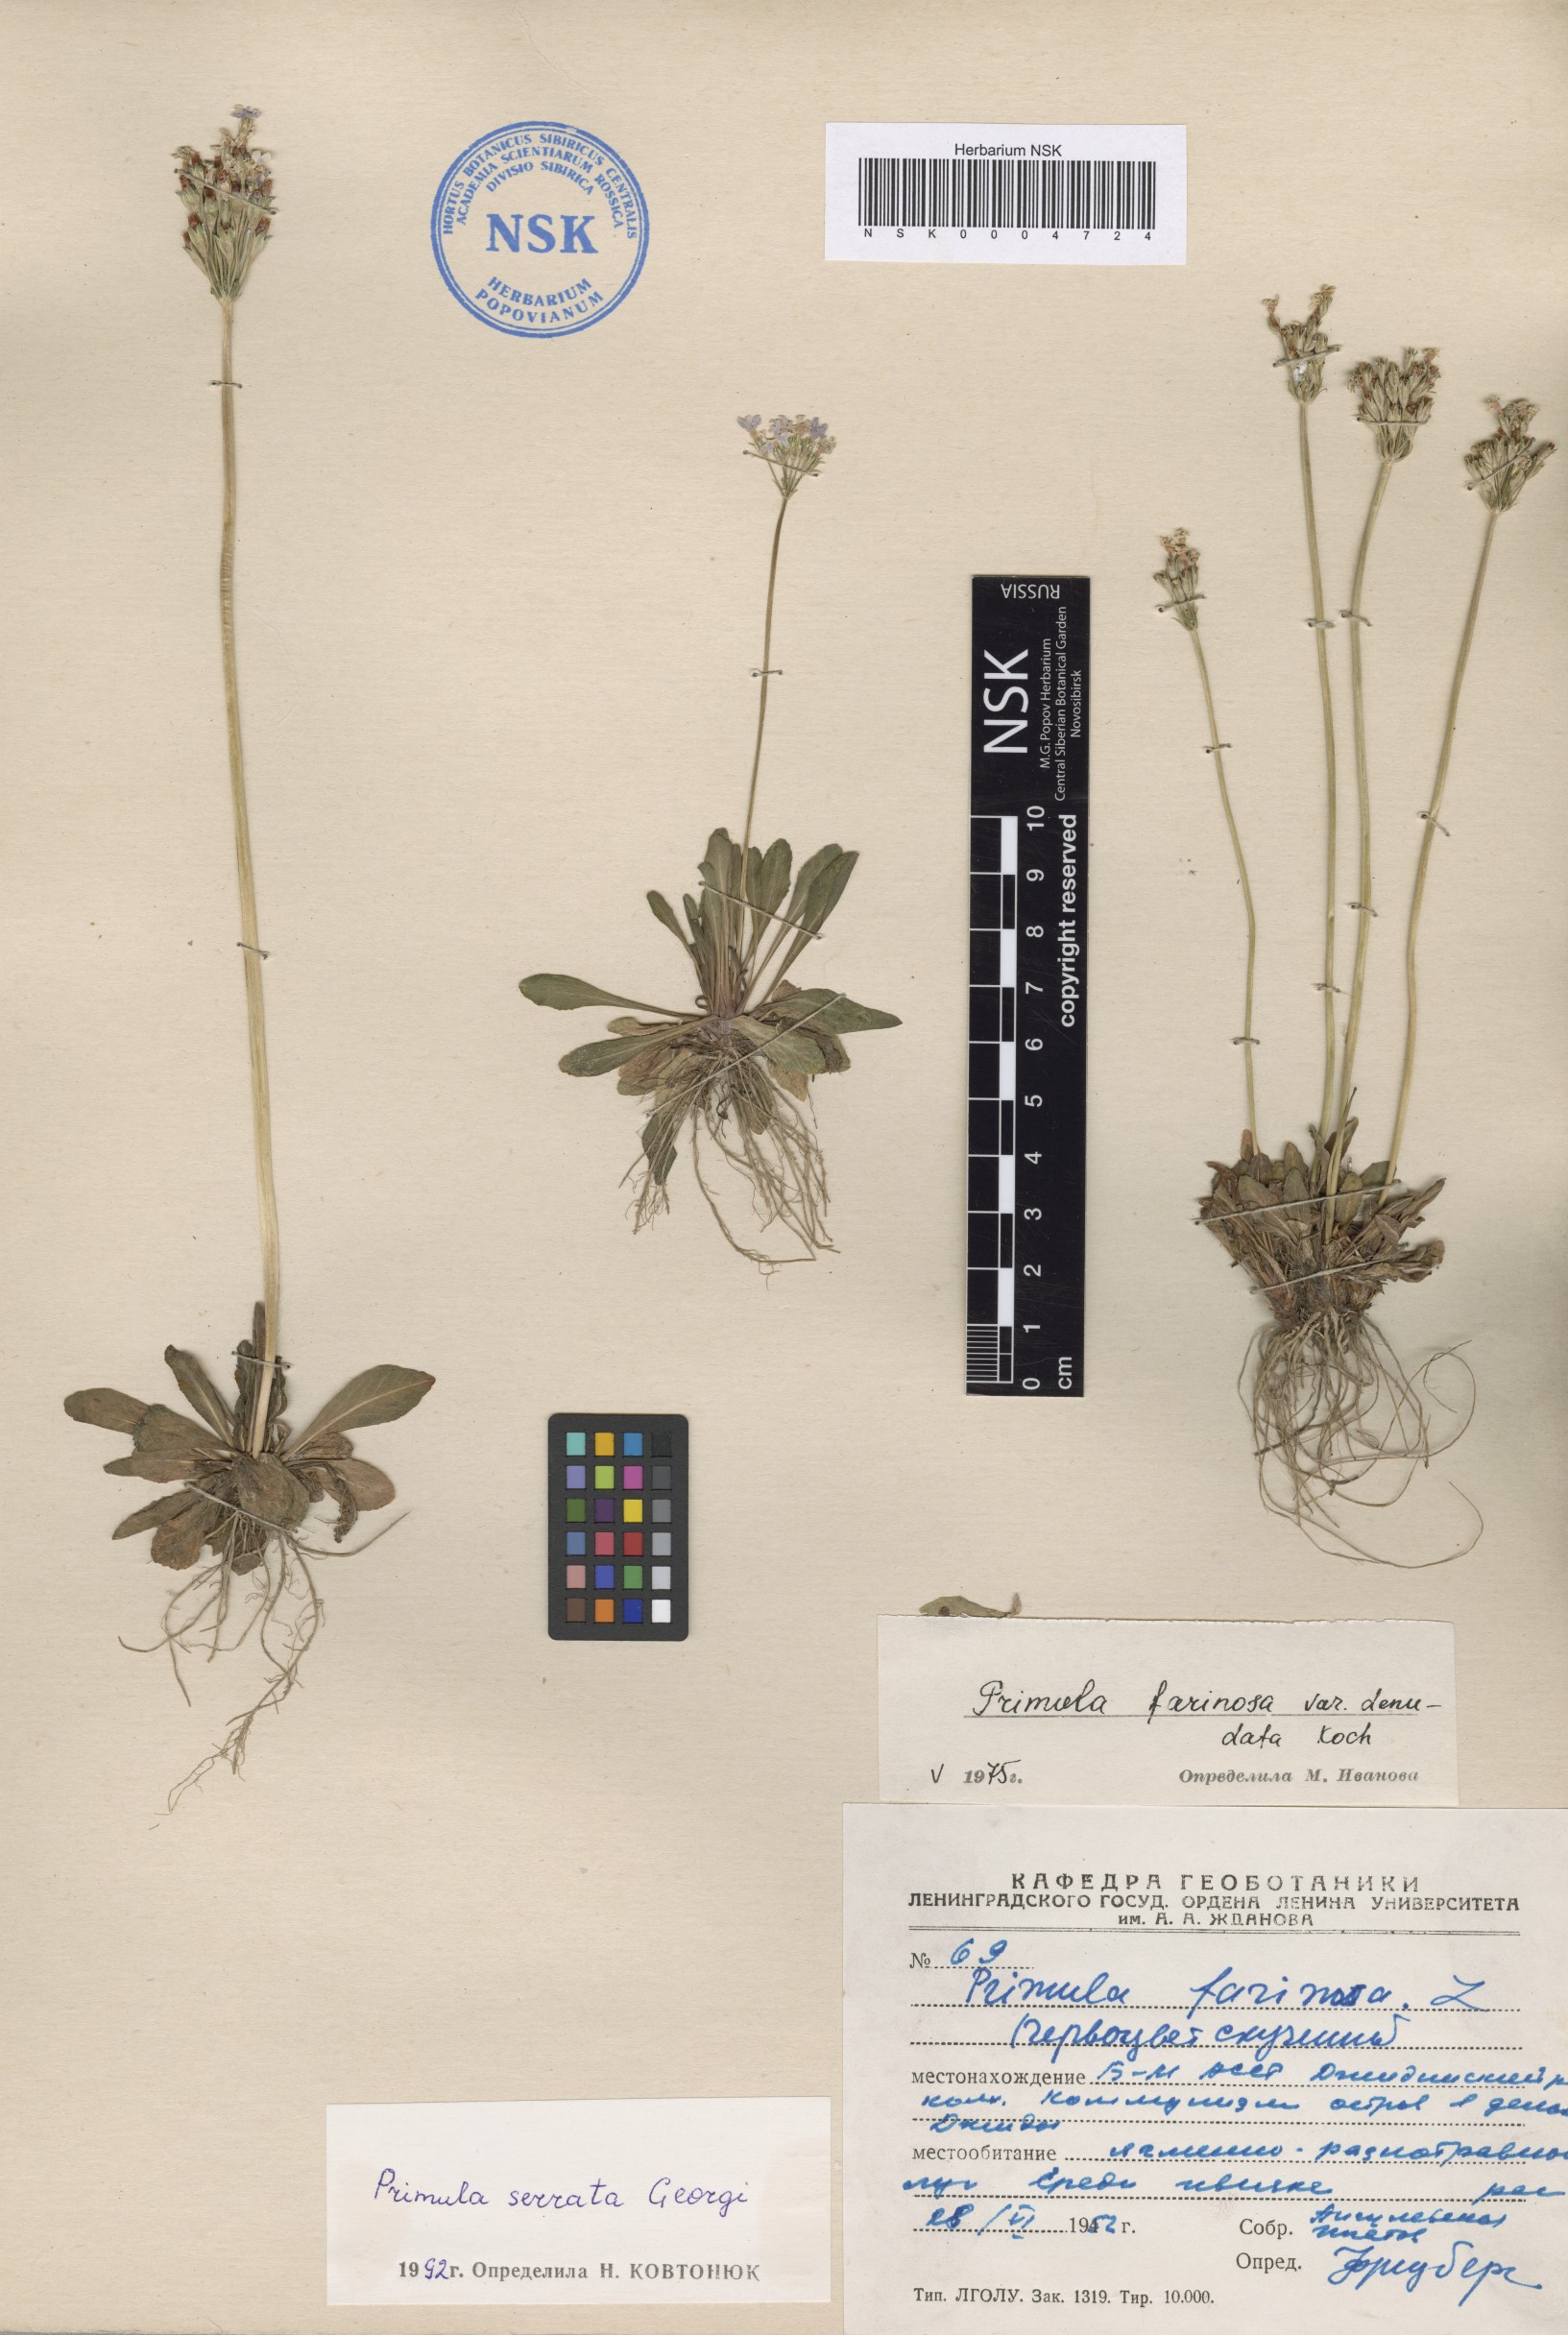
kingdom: Plantae
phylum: Tracheophyta
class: Magnoliopsida
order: Ericales
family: Primulaceae
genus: Primula
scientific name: Primula serrata
